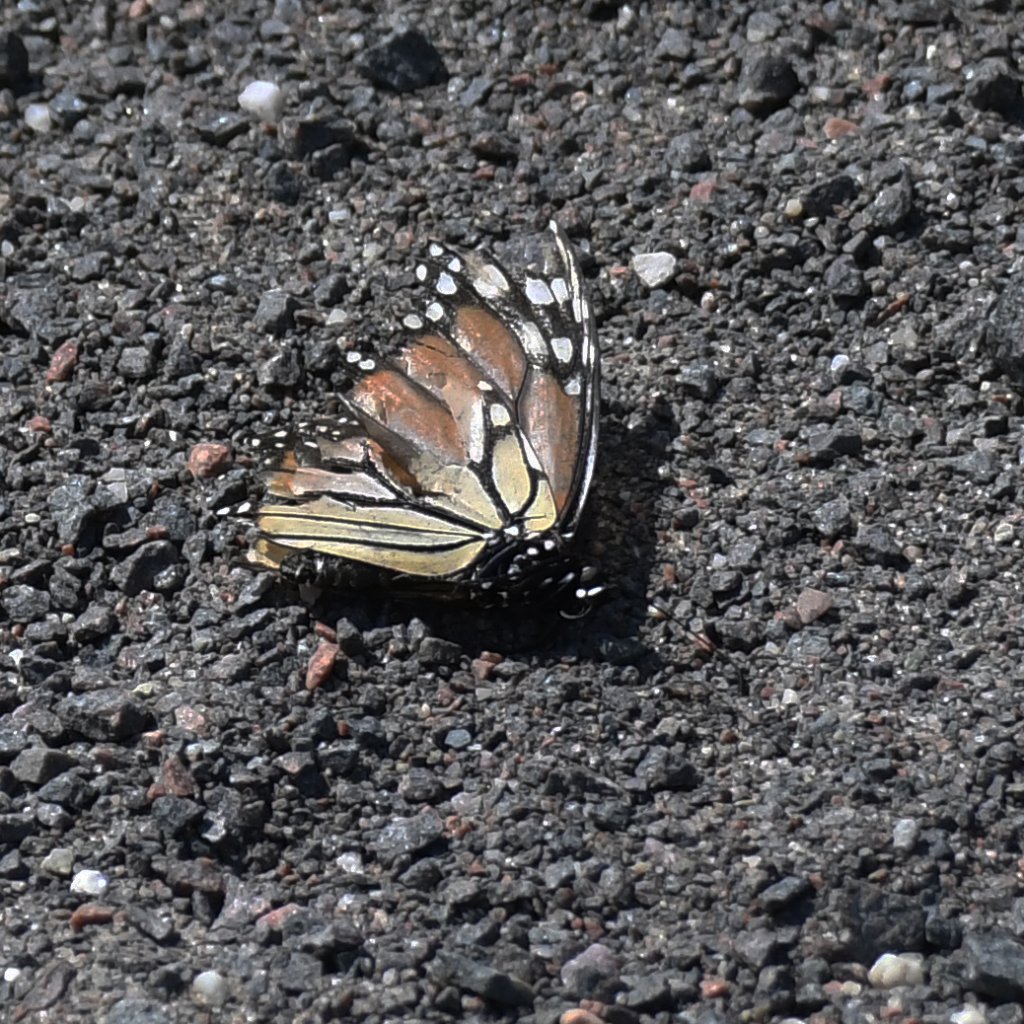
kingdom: Animalia
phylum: Arthropoda
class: Insecta
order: Lepidoptera
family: Nymphalidae
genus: Danaus
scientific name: Danaus plexippus
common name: Monarch
